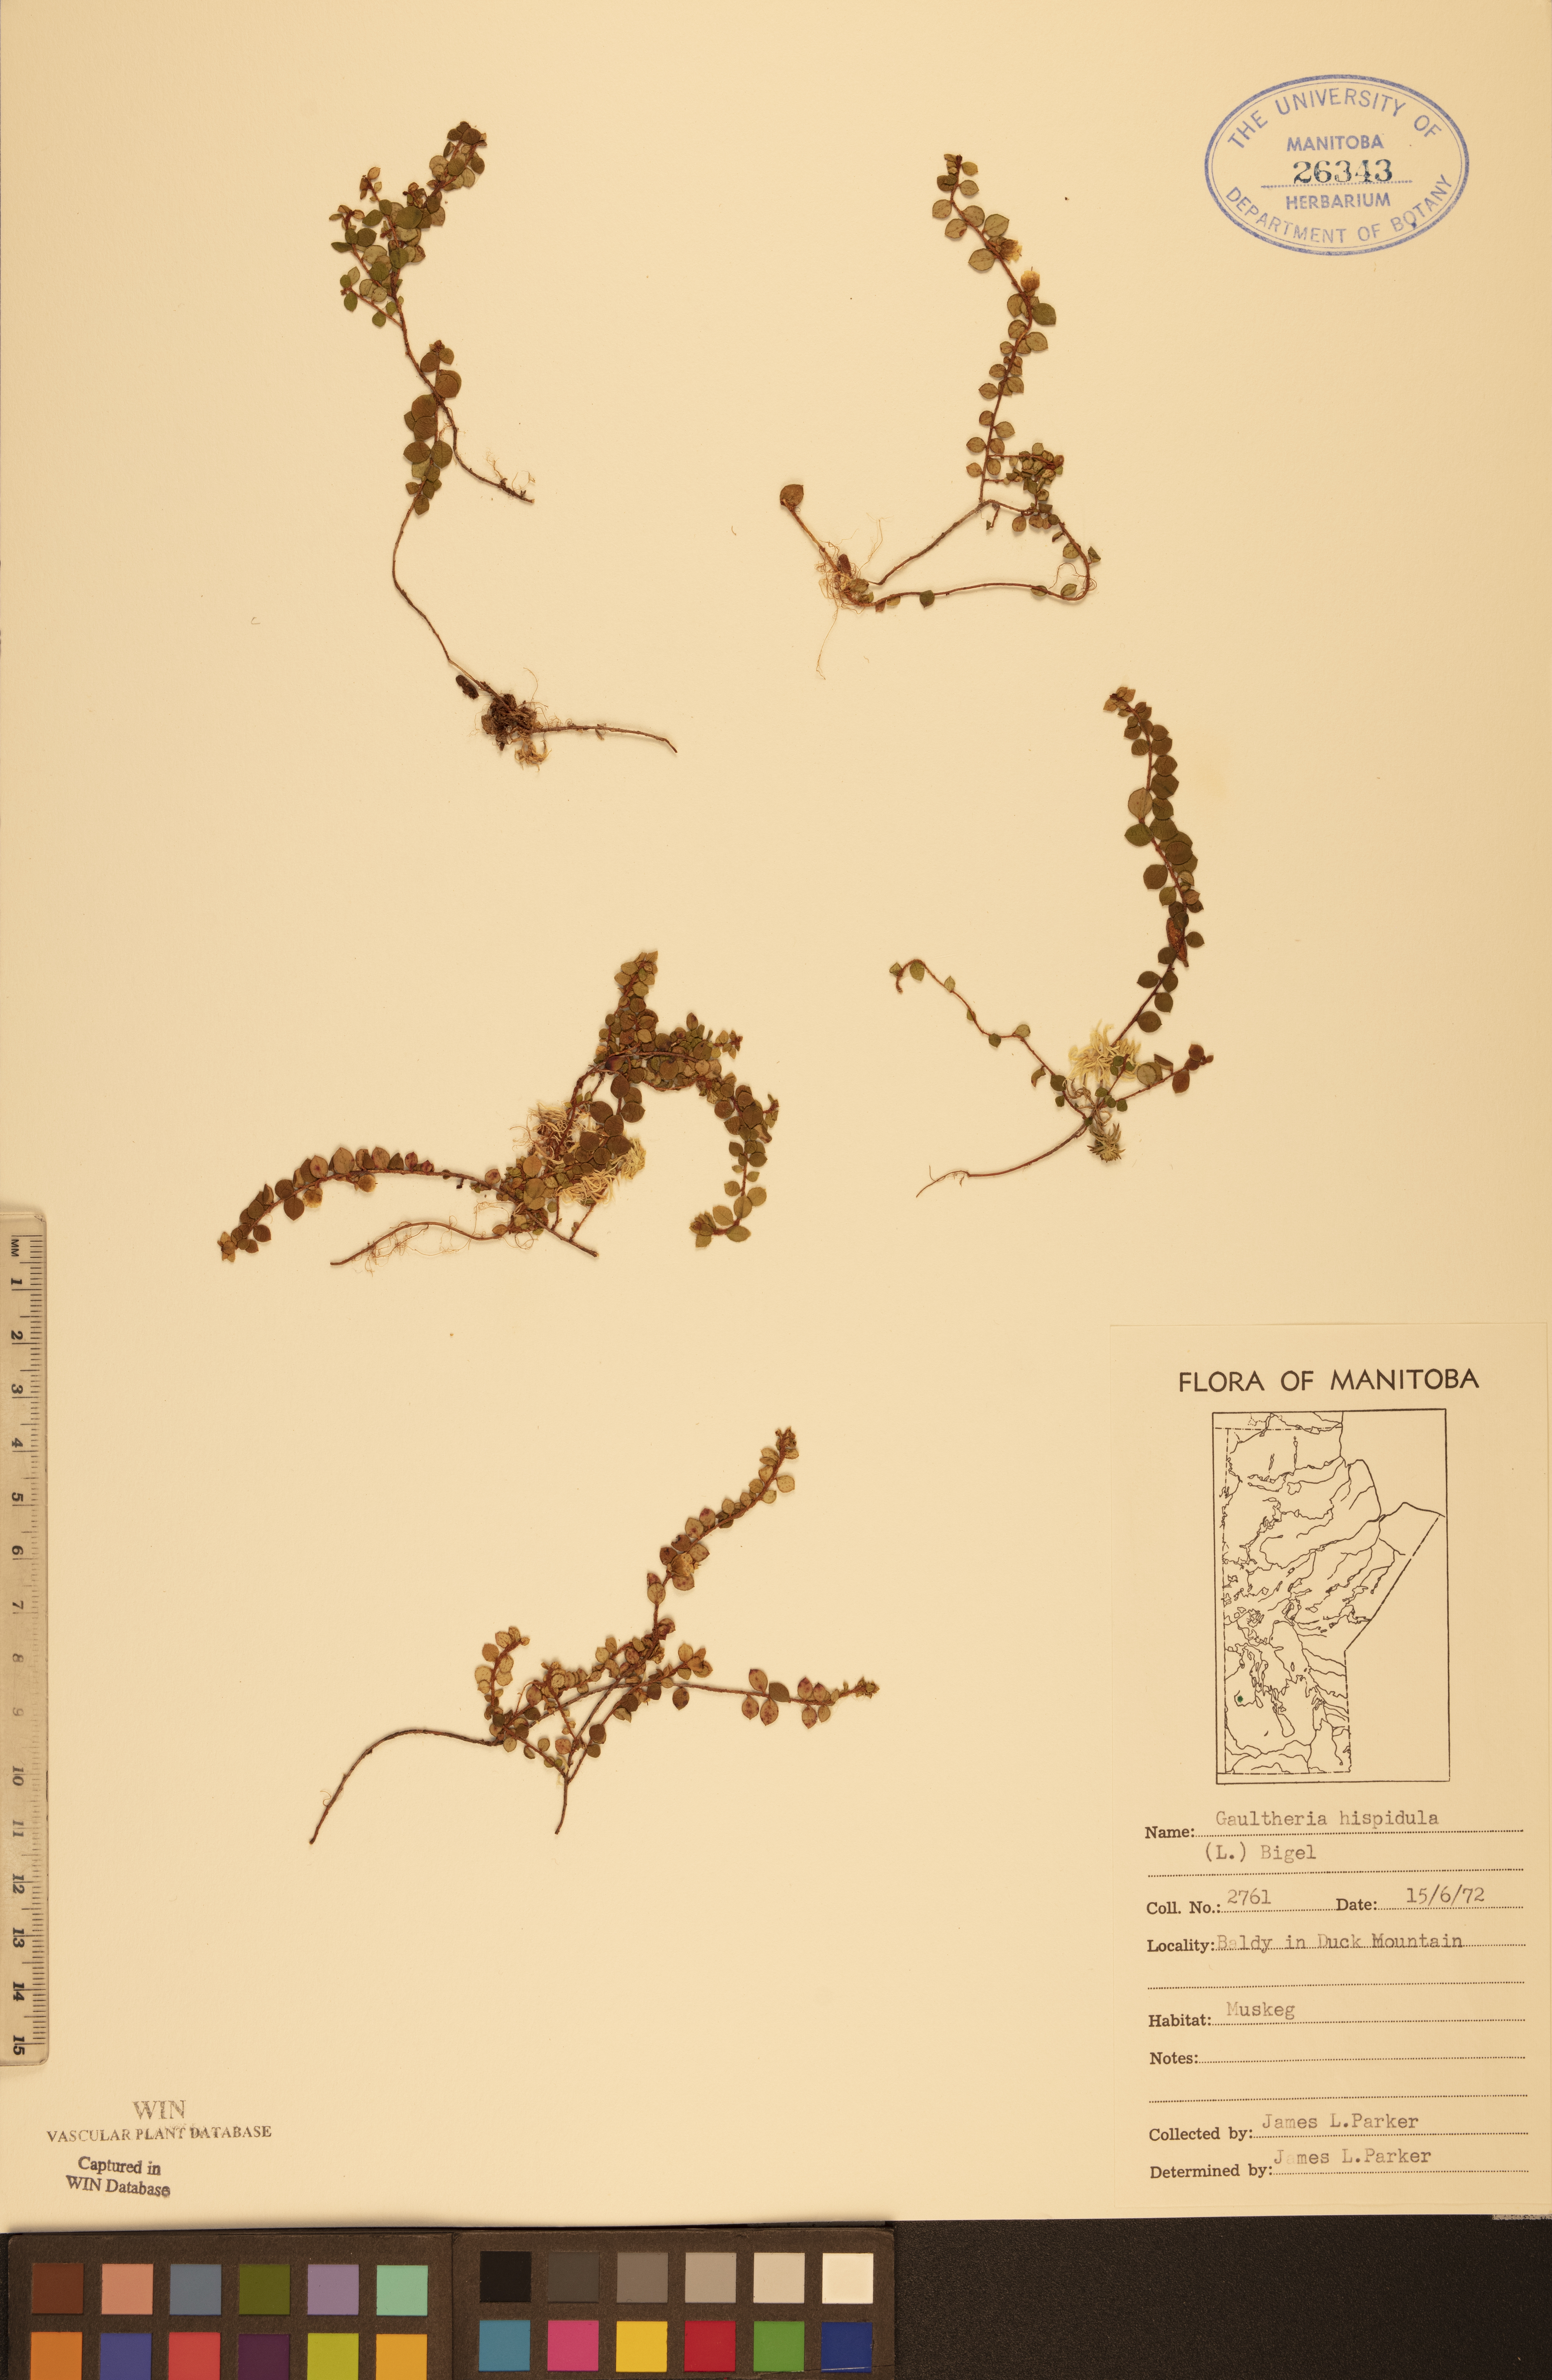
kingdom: Plantae
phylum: Tracheophyta
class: Magnoliopsida
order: Ericales
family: Ericaceae
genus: Gaultheria
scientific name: Gaultheria hispidula
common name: Cancer wintergreen
